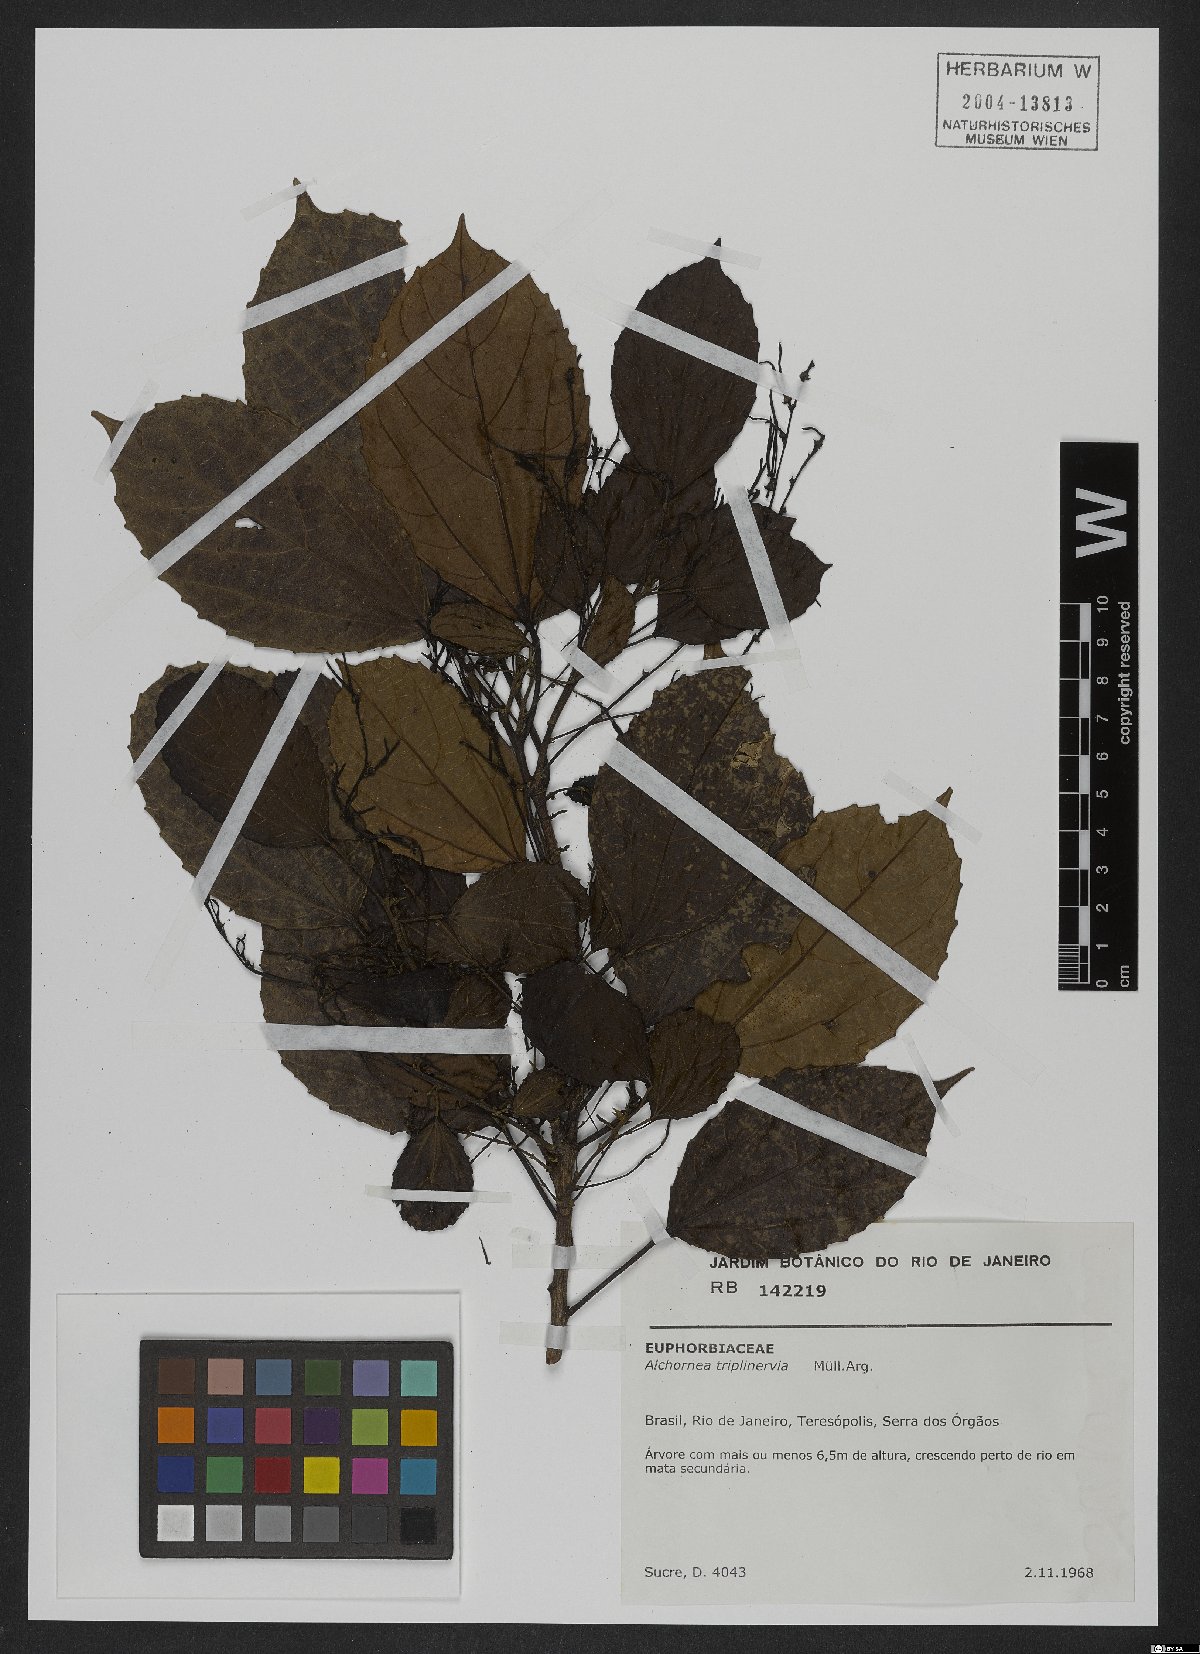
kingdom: Plantae
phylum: Tracheophyta
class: Magnoliopsida
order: Malpighiales
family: Euphorbiaceae
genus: Alchornea
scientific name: Alchornea triplinervia
